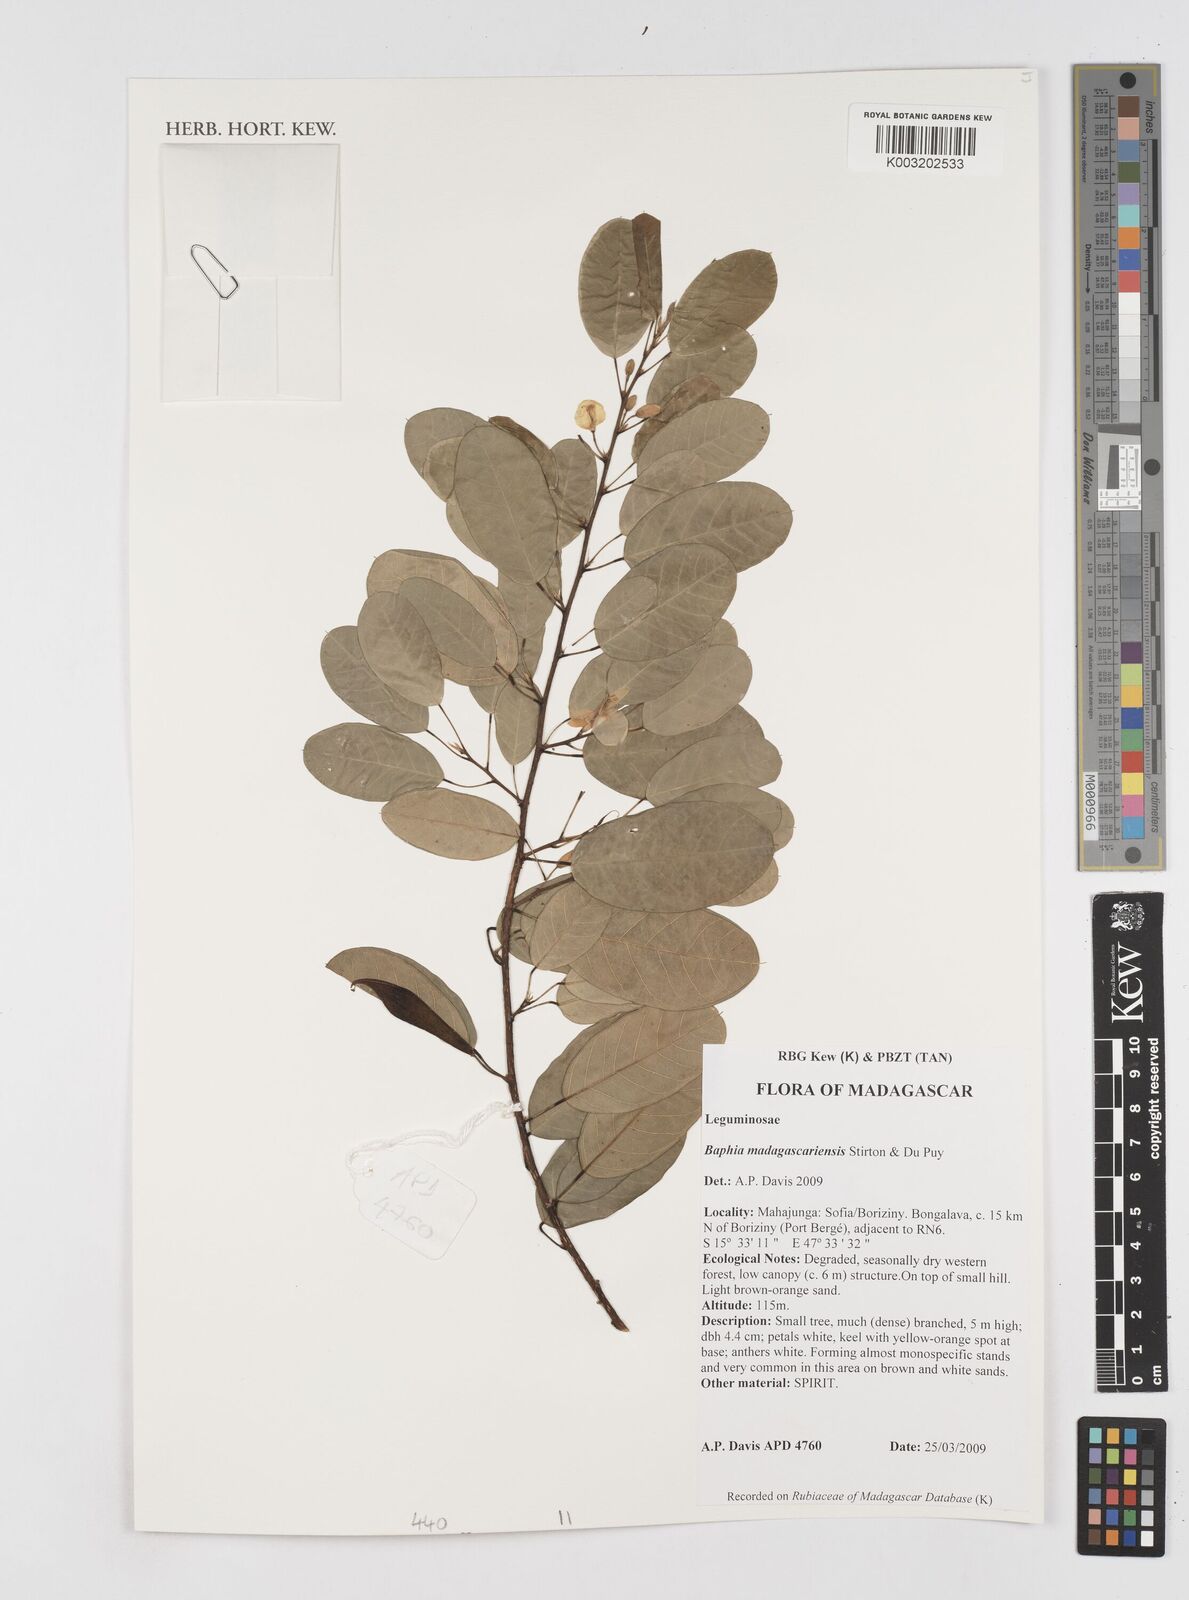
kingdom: Plantae
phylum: Tracheophyta
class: Magnoliopsida
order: Fabales
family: Fabaceae
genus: Baphia
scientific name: Baphia madagascariensis
